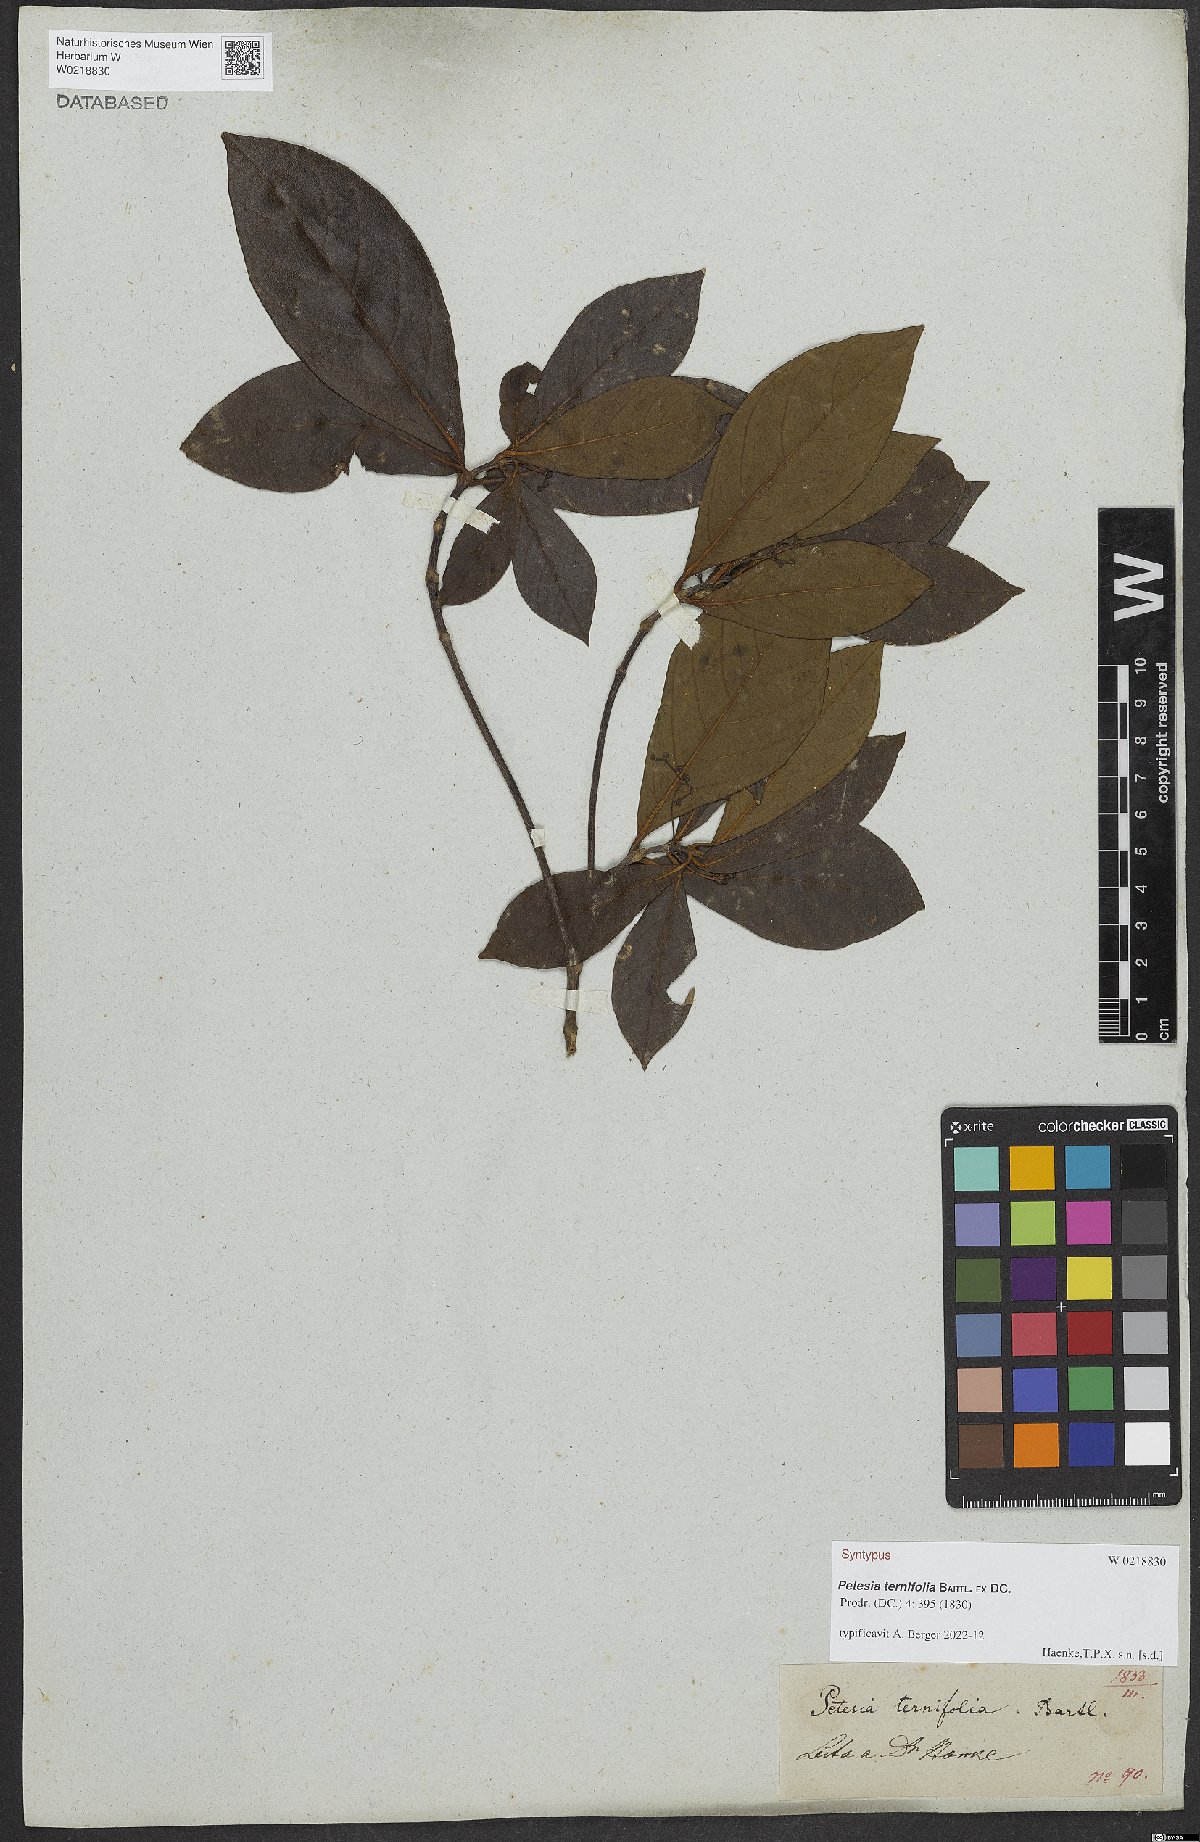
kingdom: Plantae
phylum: Tracheophyta
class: Magnoliopsida
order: Gentianales
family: Rubiaceae
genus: Timonius
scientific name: Timonius ternifolius
